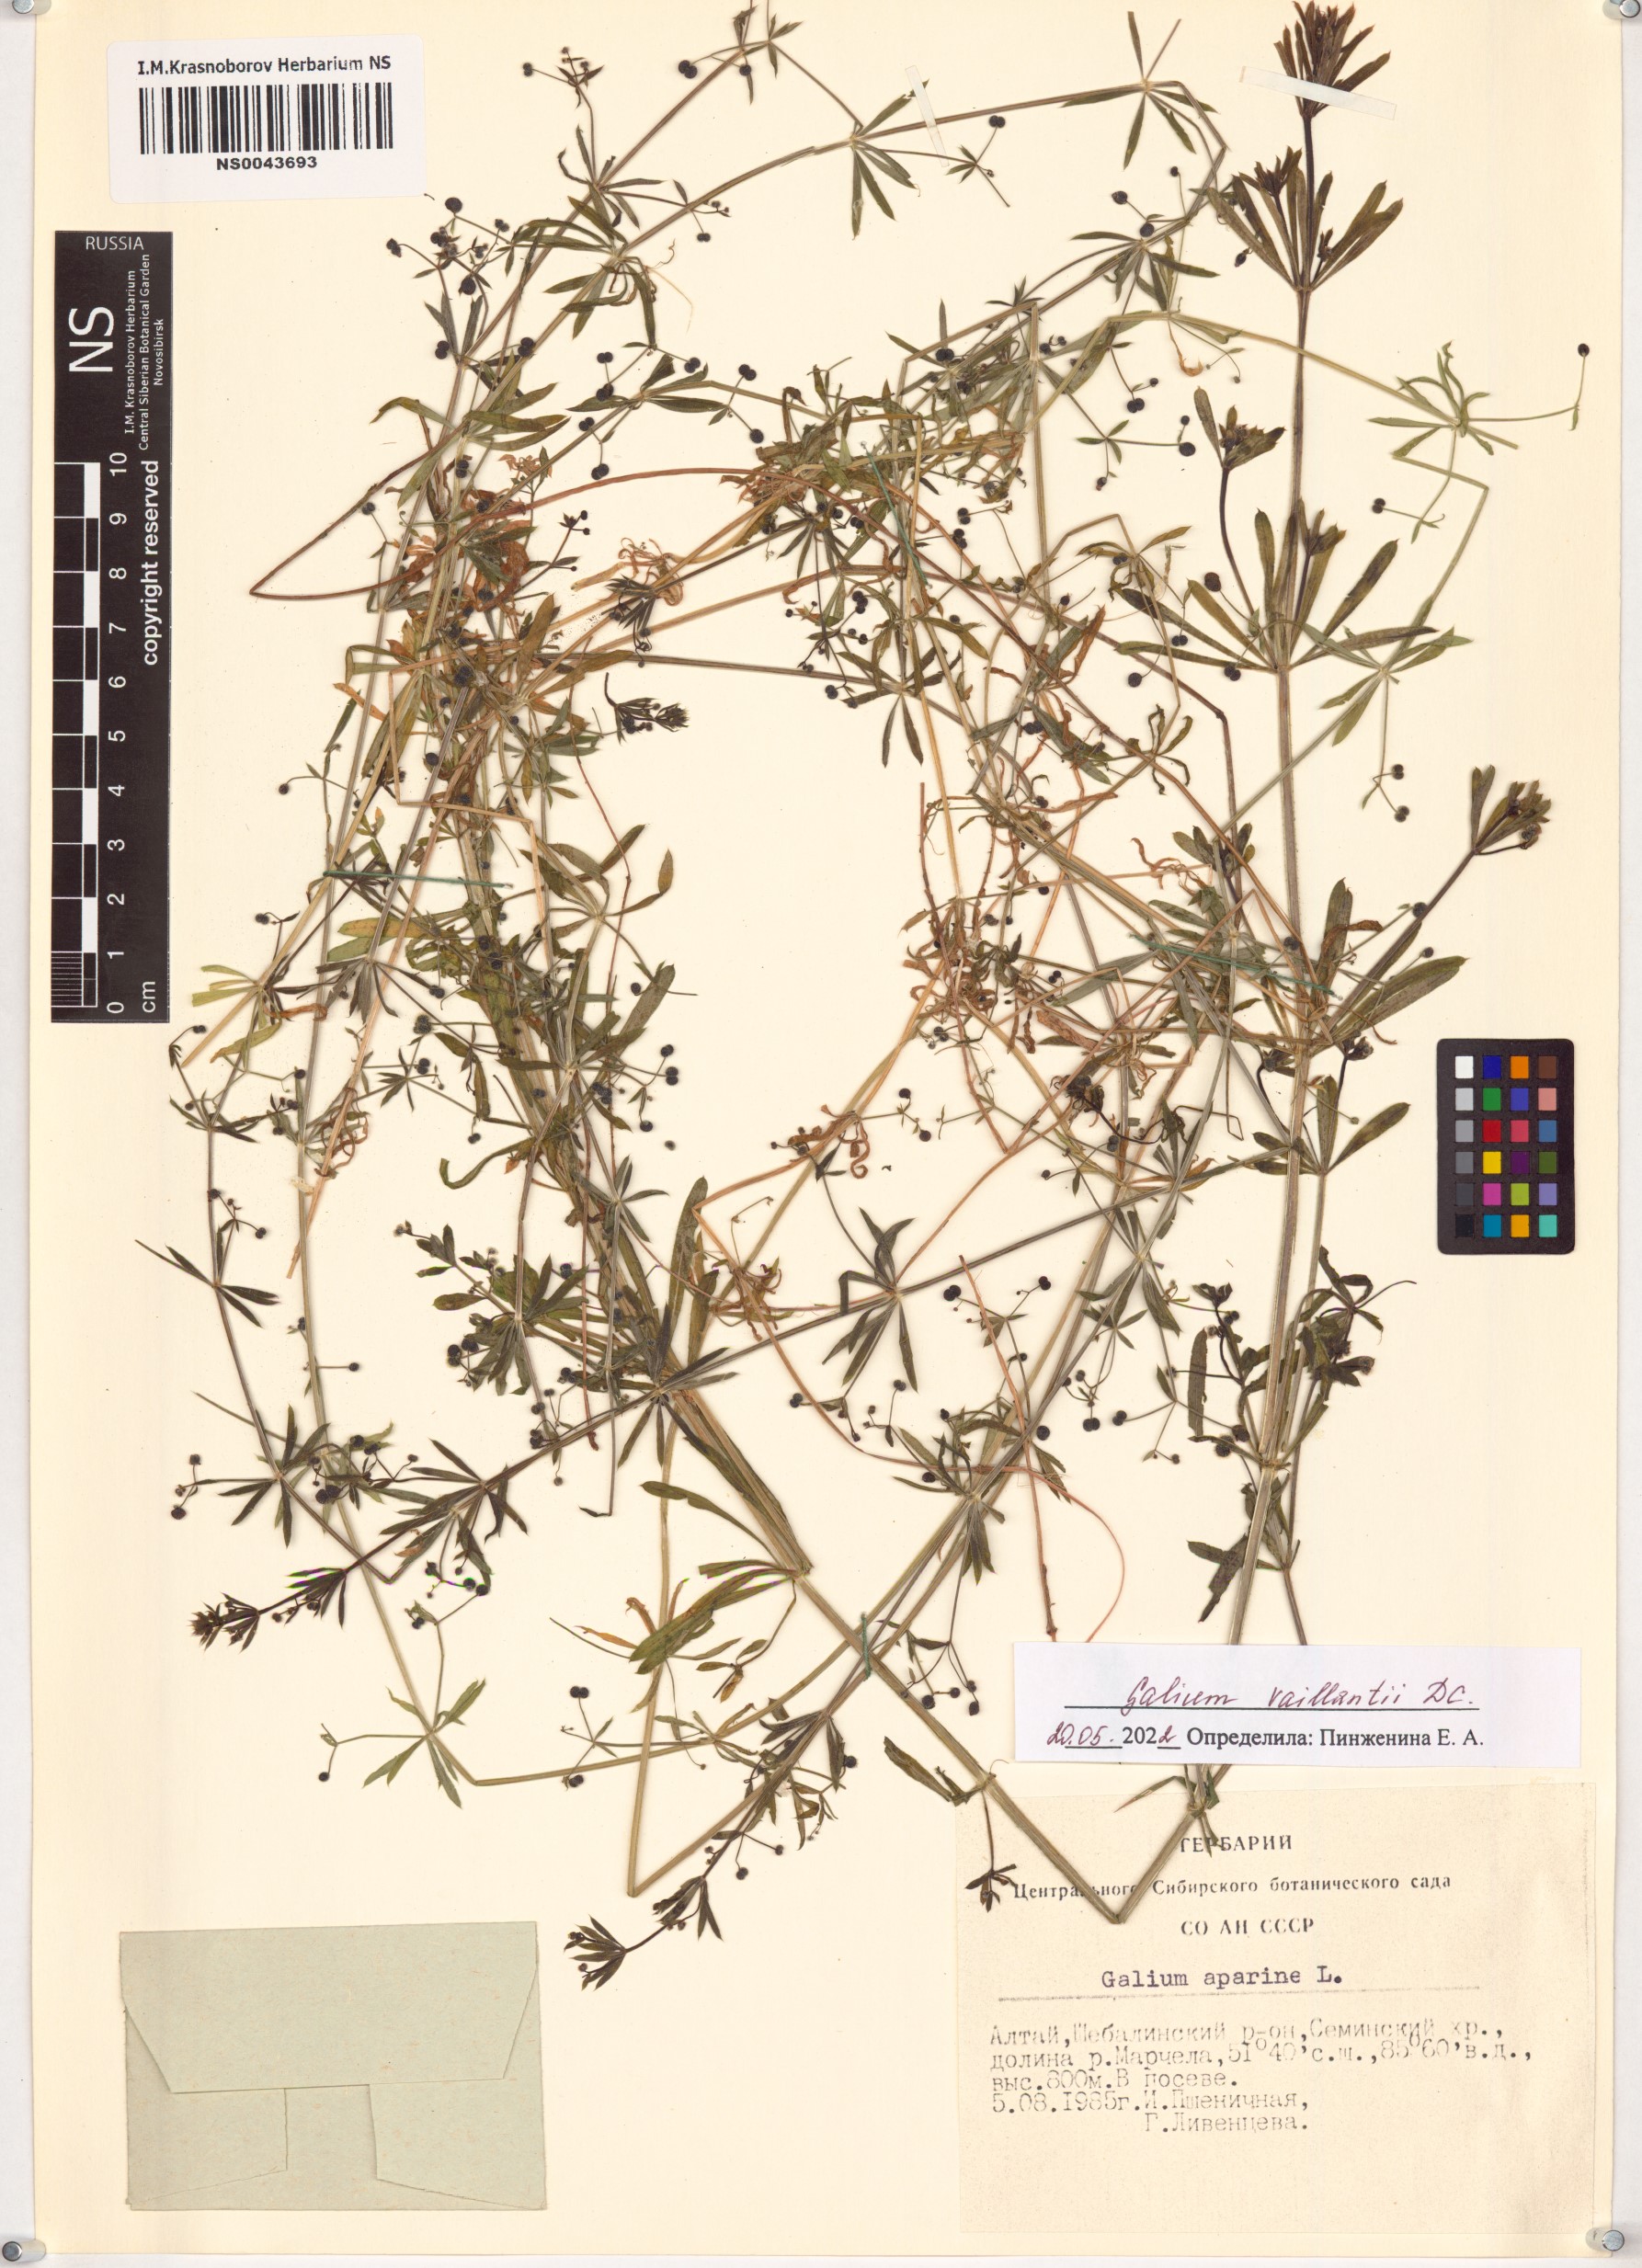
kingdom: Plantae
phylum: Tracheophyta
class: Magnoliopsida
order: Gentianales
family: Rubiaceae
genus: Galium
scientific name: Galium spurium
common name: False cleavers
